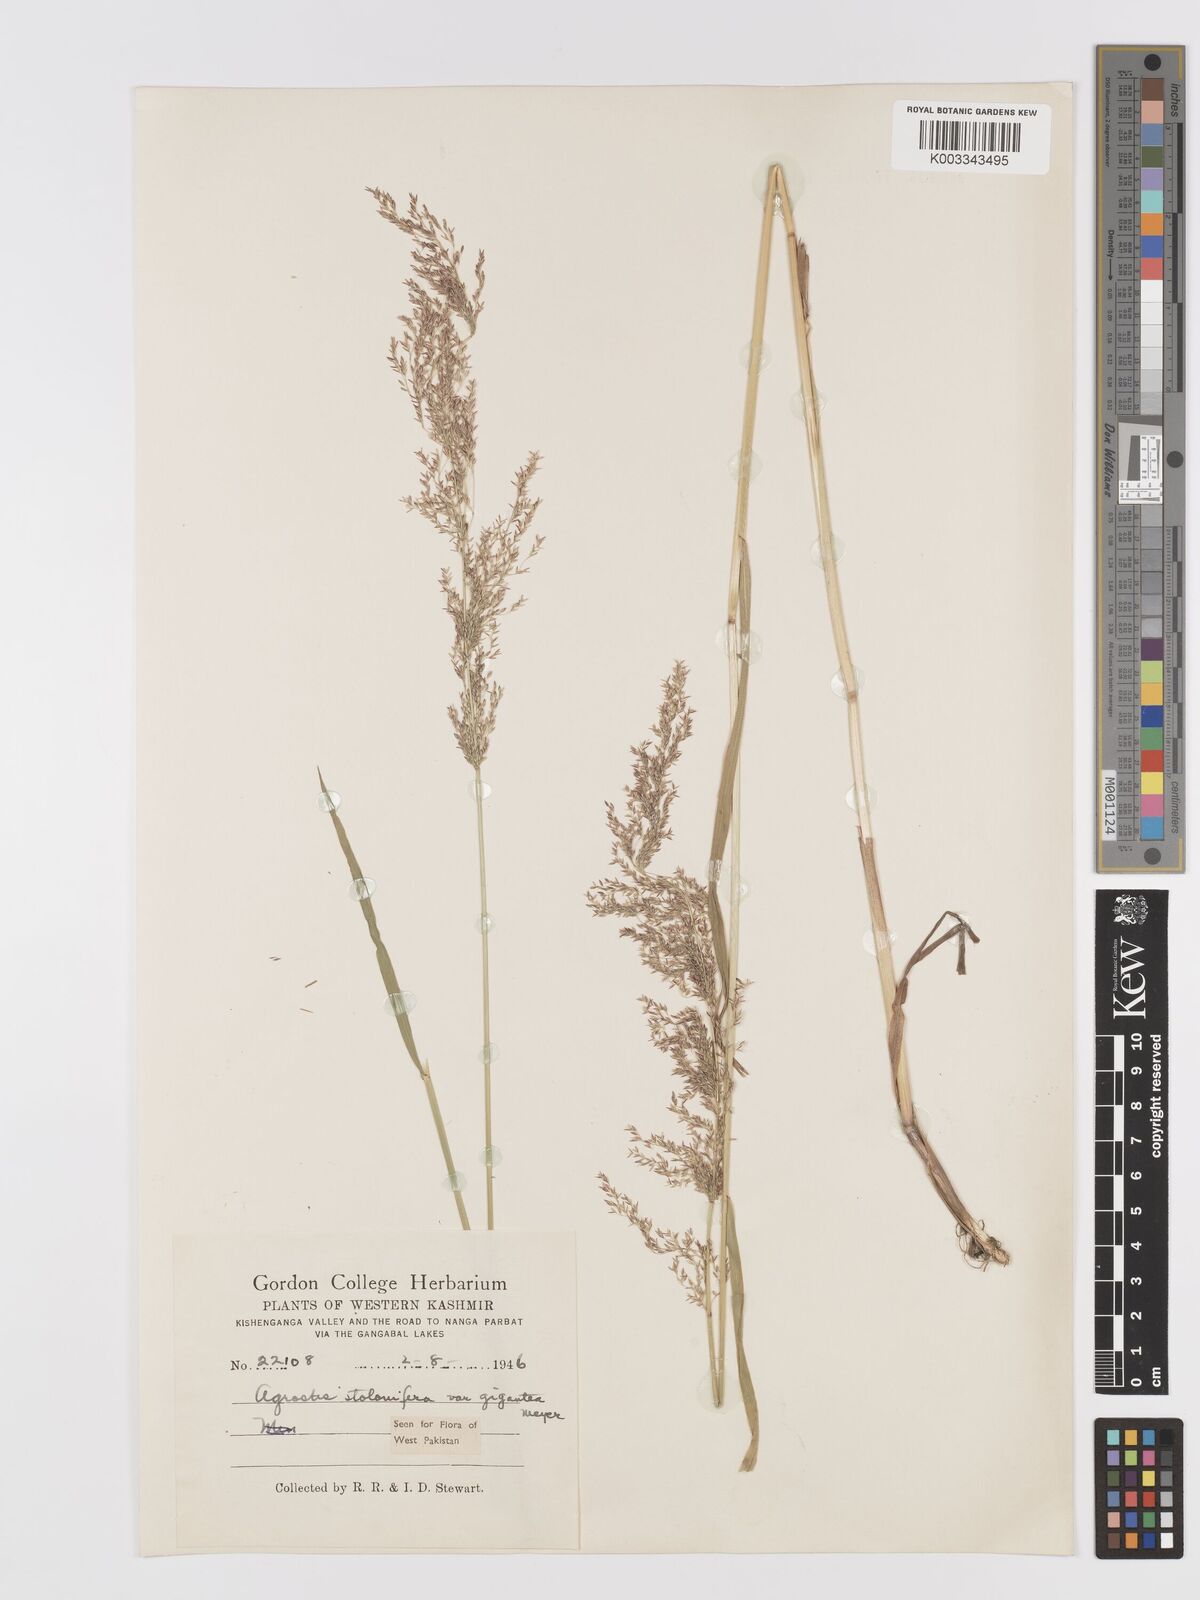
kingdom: Plantae
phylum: Tracheophyta
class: Liliopsida
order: Poales
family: Poaceae
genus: Agrostis
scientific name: Agrostis gigantea
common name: Black bent
